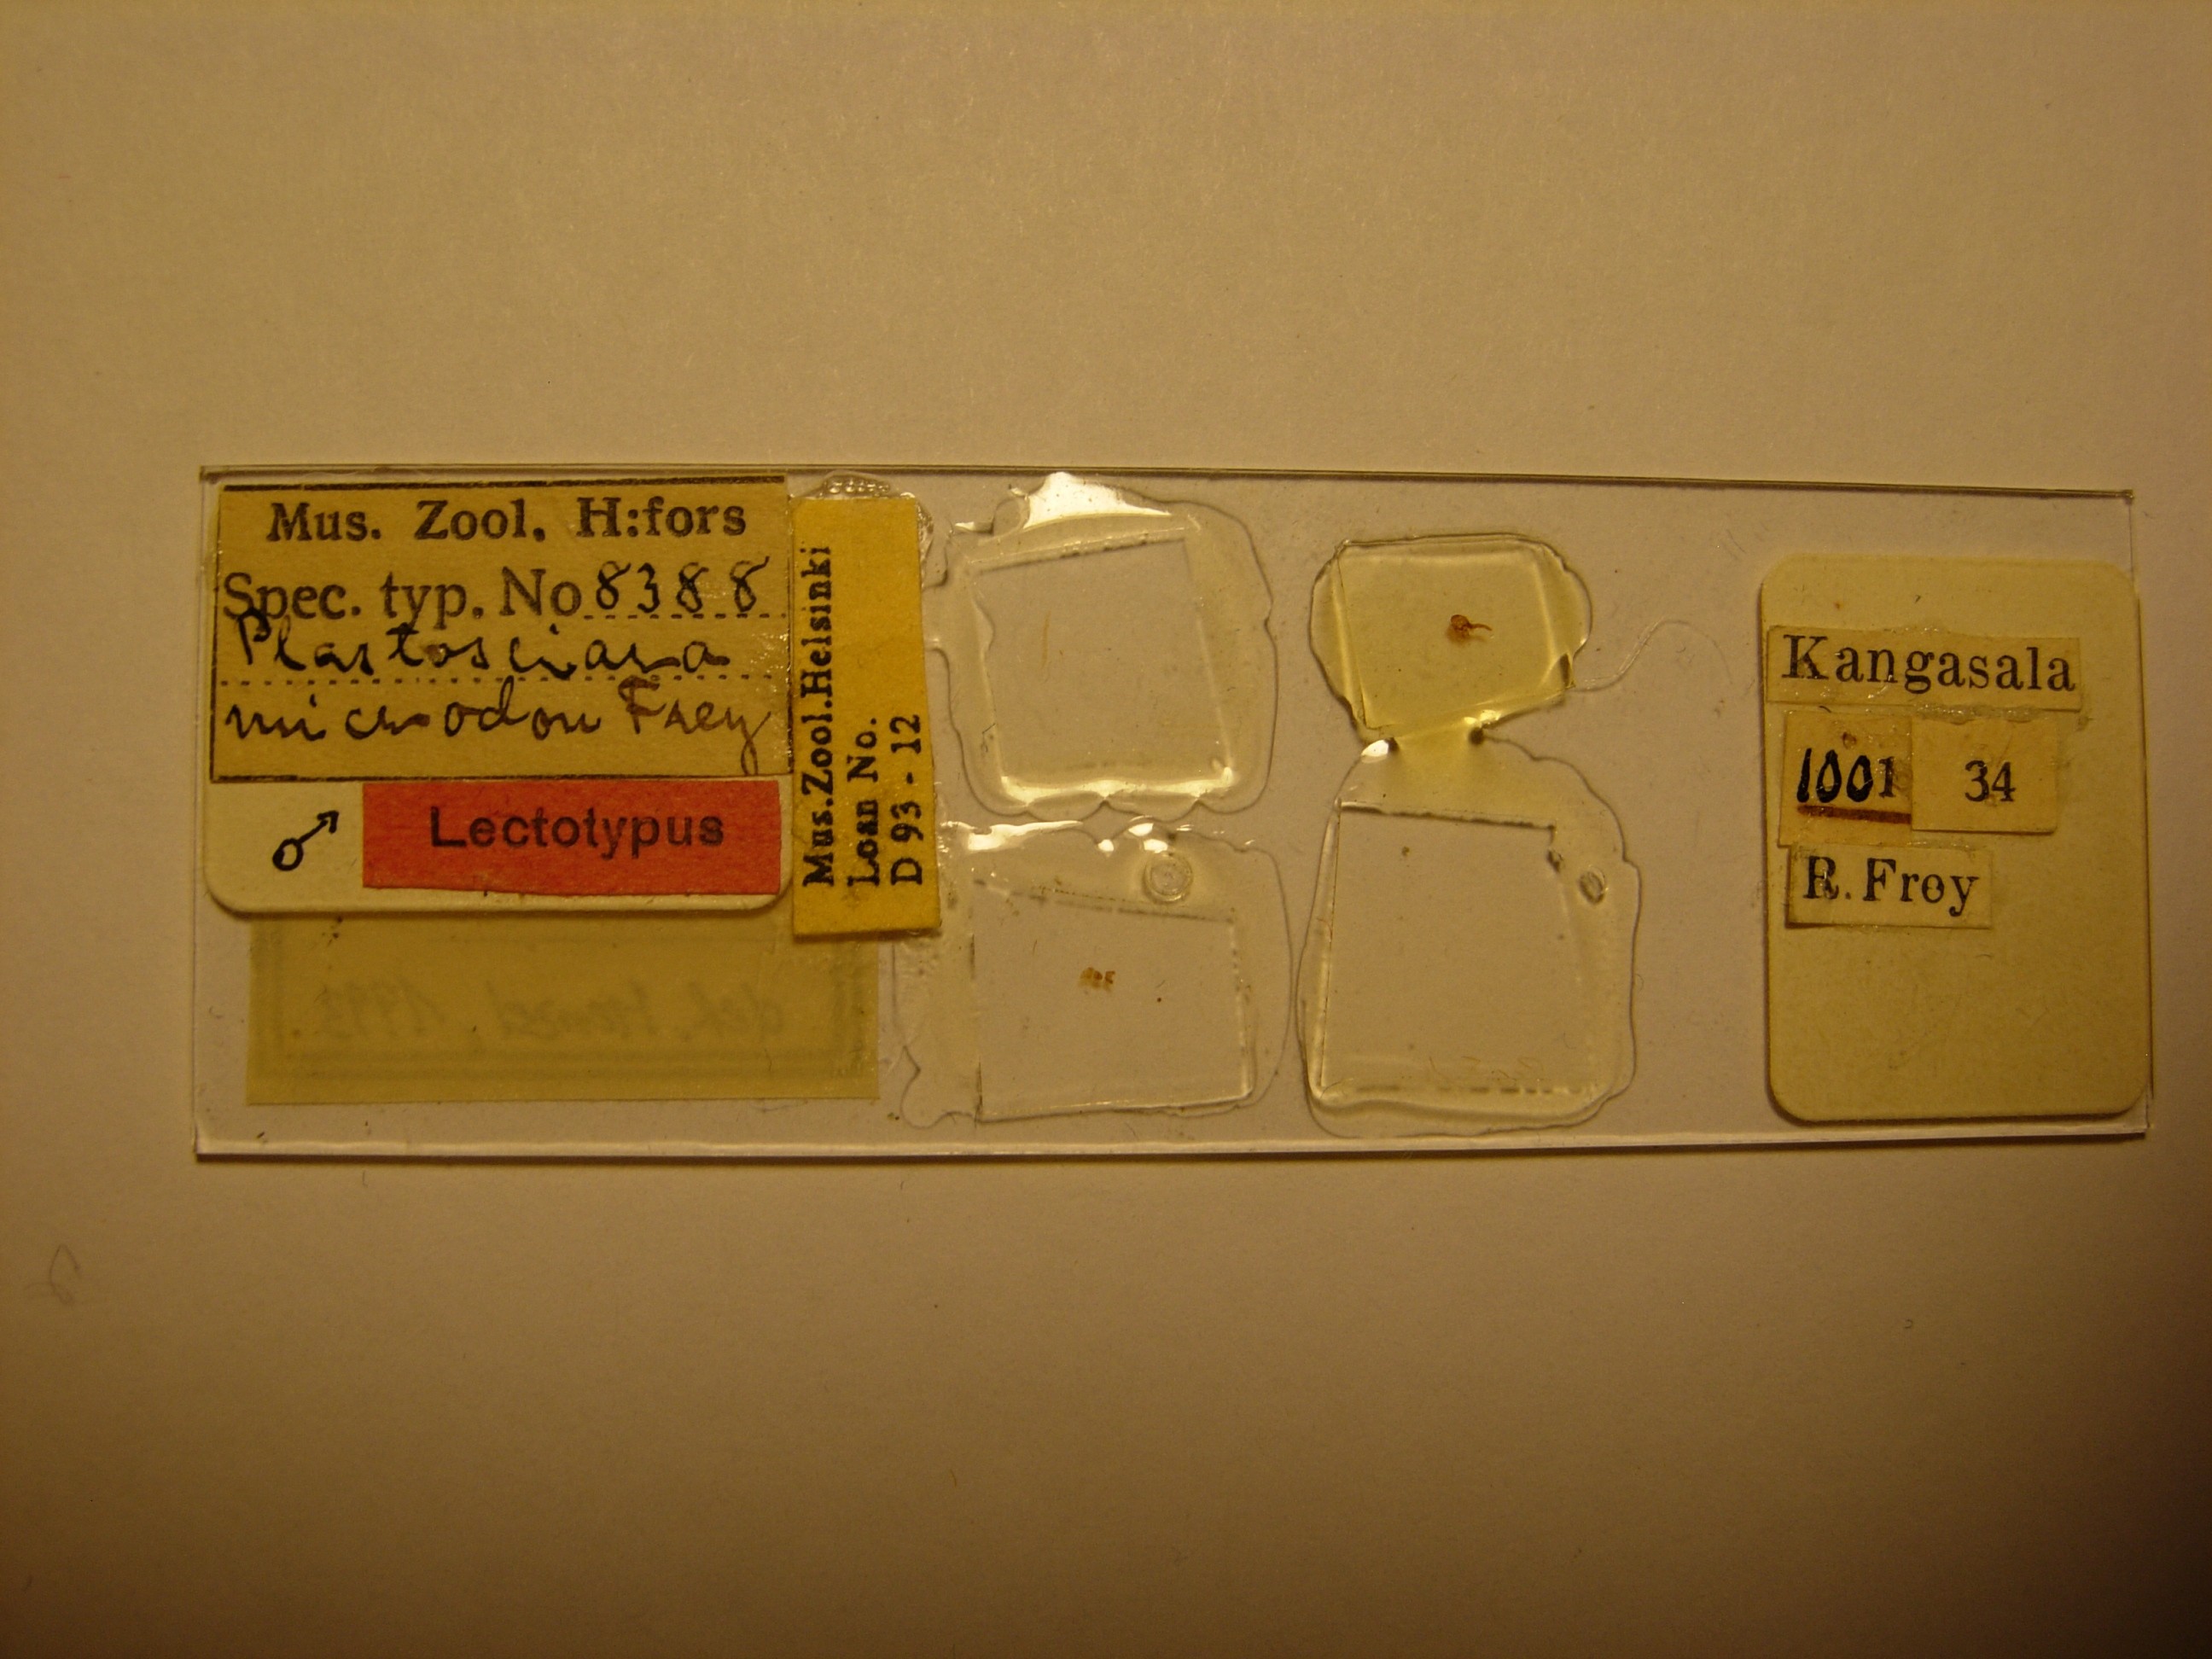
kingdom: Animalia
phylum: Arthropoda
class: Insecta
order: Diptera
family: Sciaridae
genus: Xylosciara
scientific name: Xylosciara steleocera
